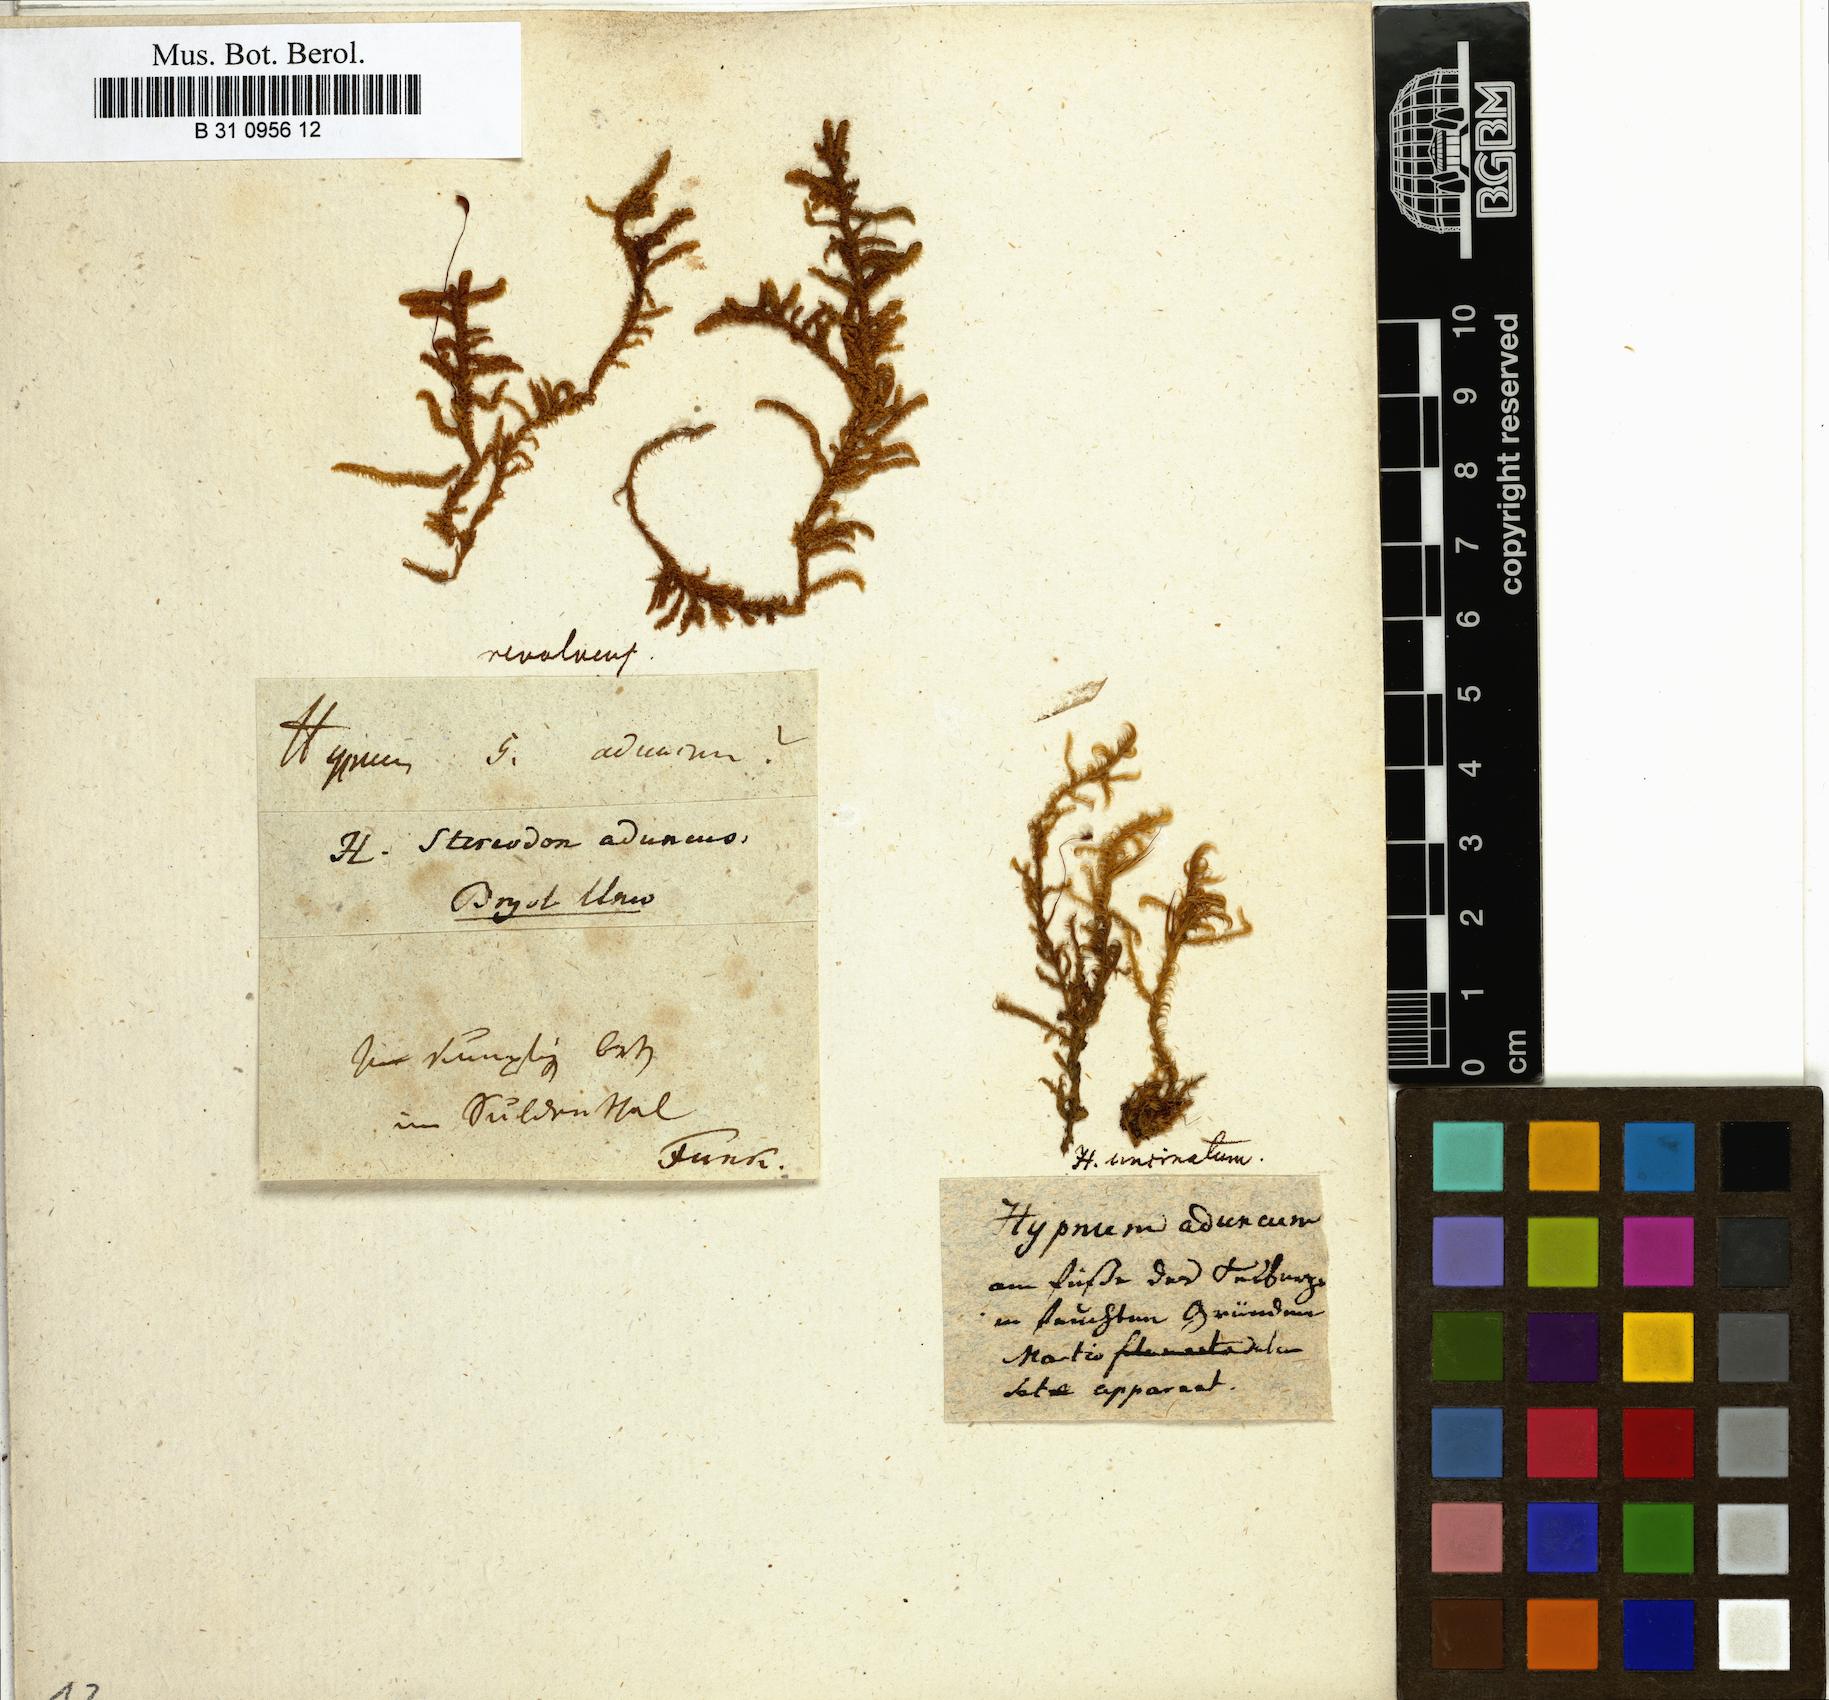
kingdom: Plantae
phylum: Bryophyta
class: Bryopsida
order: Hypnales
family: Amblystegiaceae
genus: Drepanocladus
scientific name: Drepanocladus aduncus
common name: Knieff's hook moss
